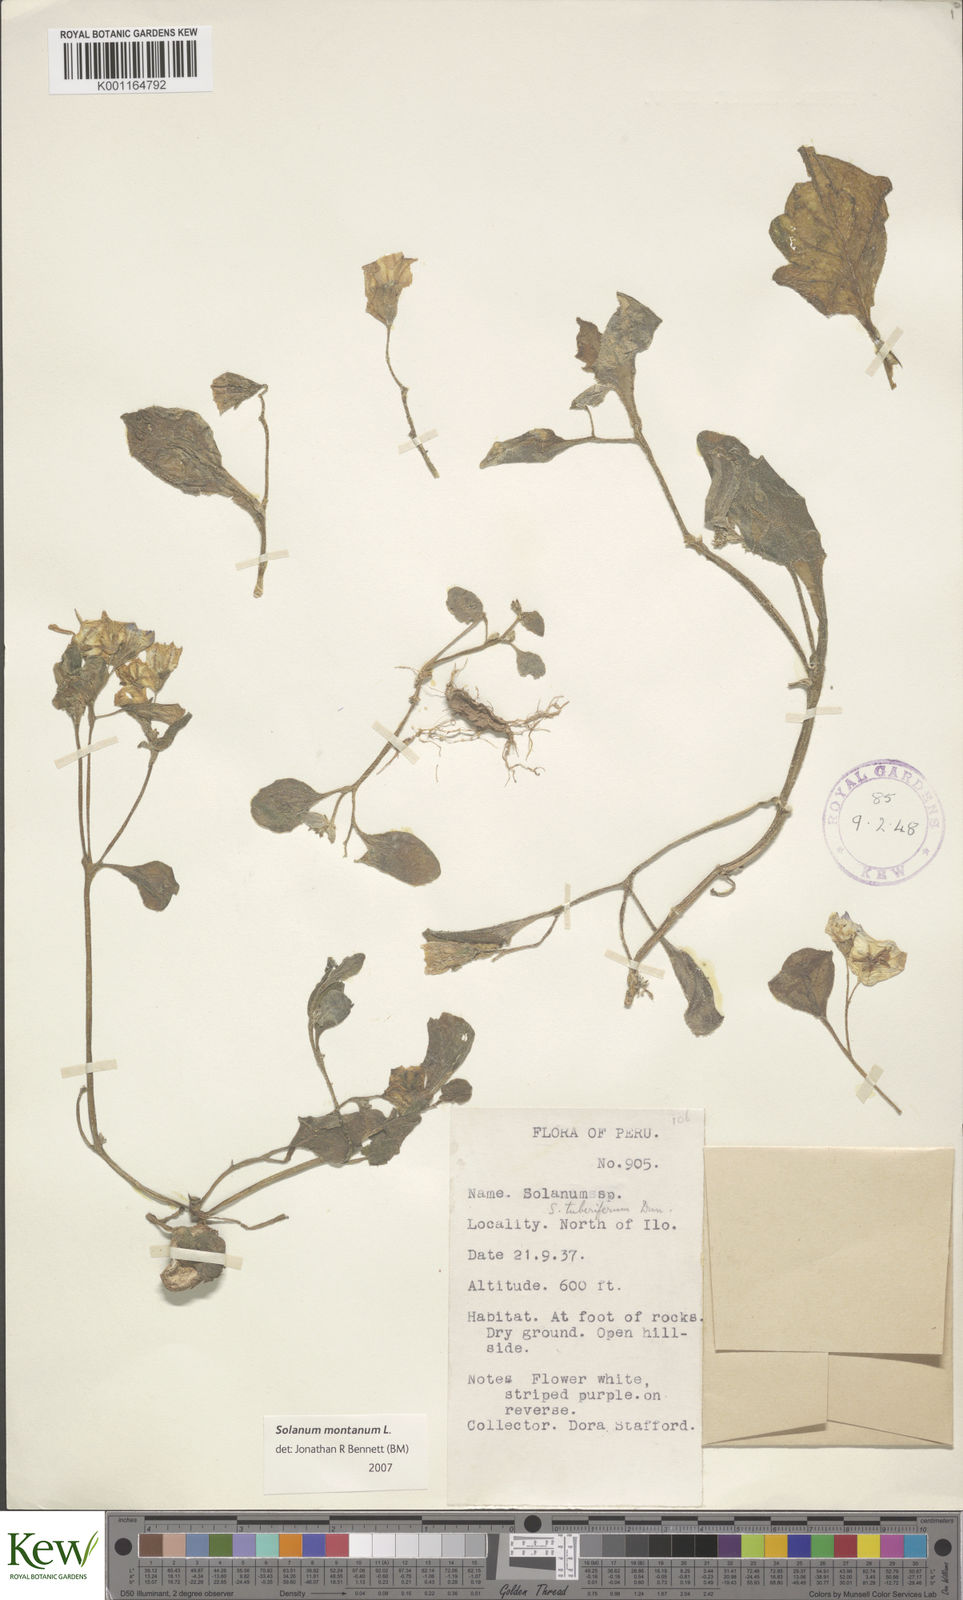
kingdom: Plantae
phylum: Tracheophyta
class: Magnoliopsida
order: Solanales
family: Solanaceae
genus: Solanum
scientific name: Solanum montanum
